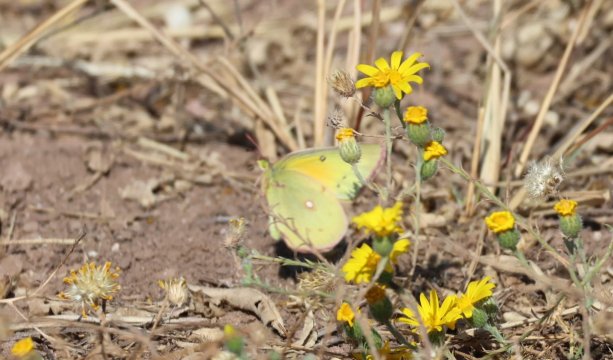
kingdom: Animalia
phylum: Arthropoda
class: Insecta
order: Lepidoptera
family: Pieridae
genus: Colias
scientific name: Colias eurytheme
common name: Orange Sulphur
